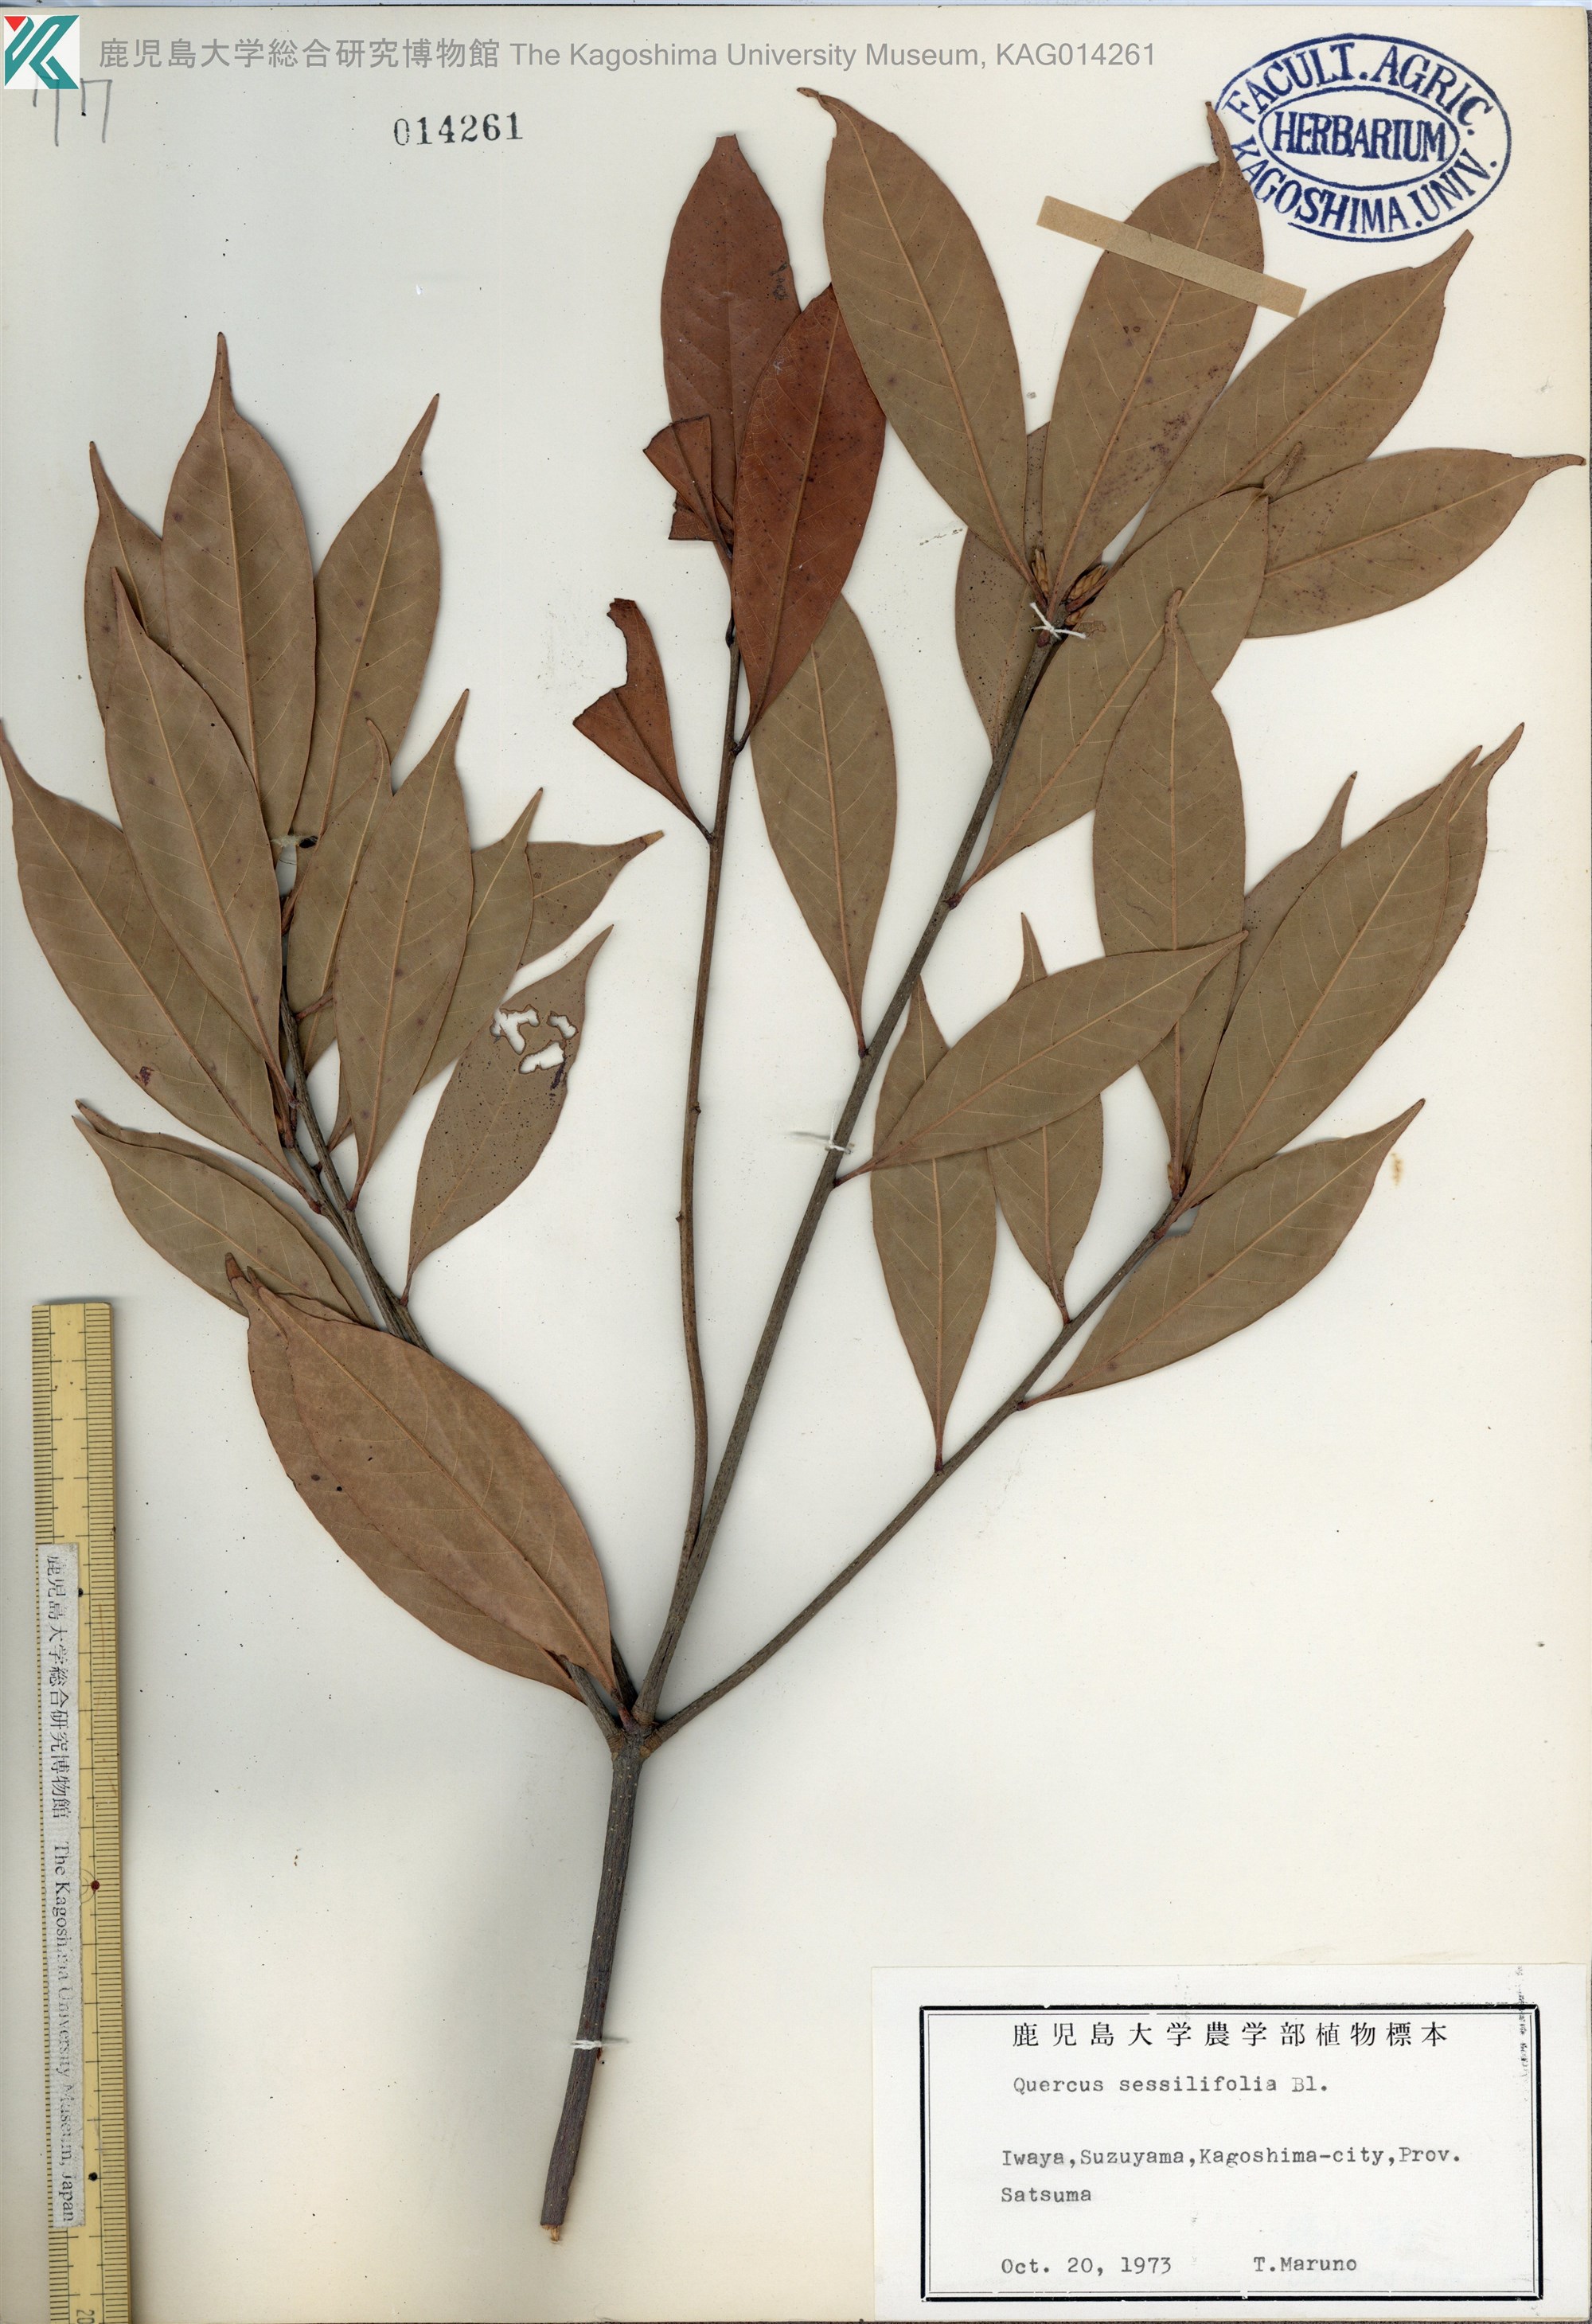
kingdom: Plantae
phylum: Tracheophyta
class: Magnoliopsida
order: Fagales
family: Fagaceae
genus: Quercus
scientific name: Quercus sessilifolia
